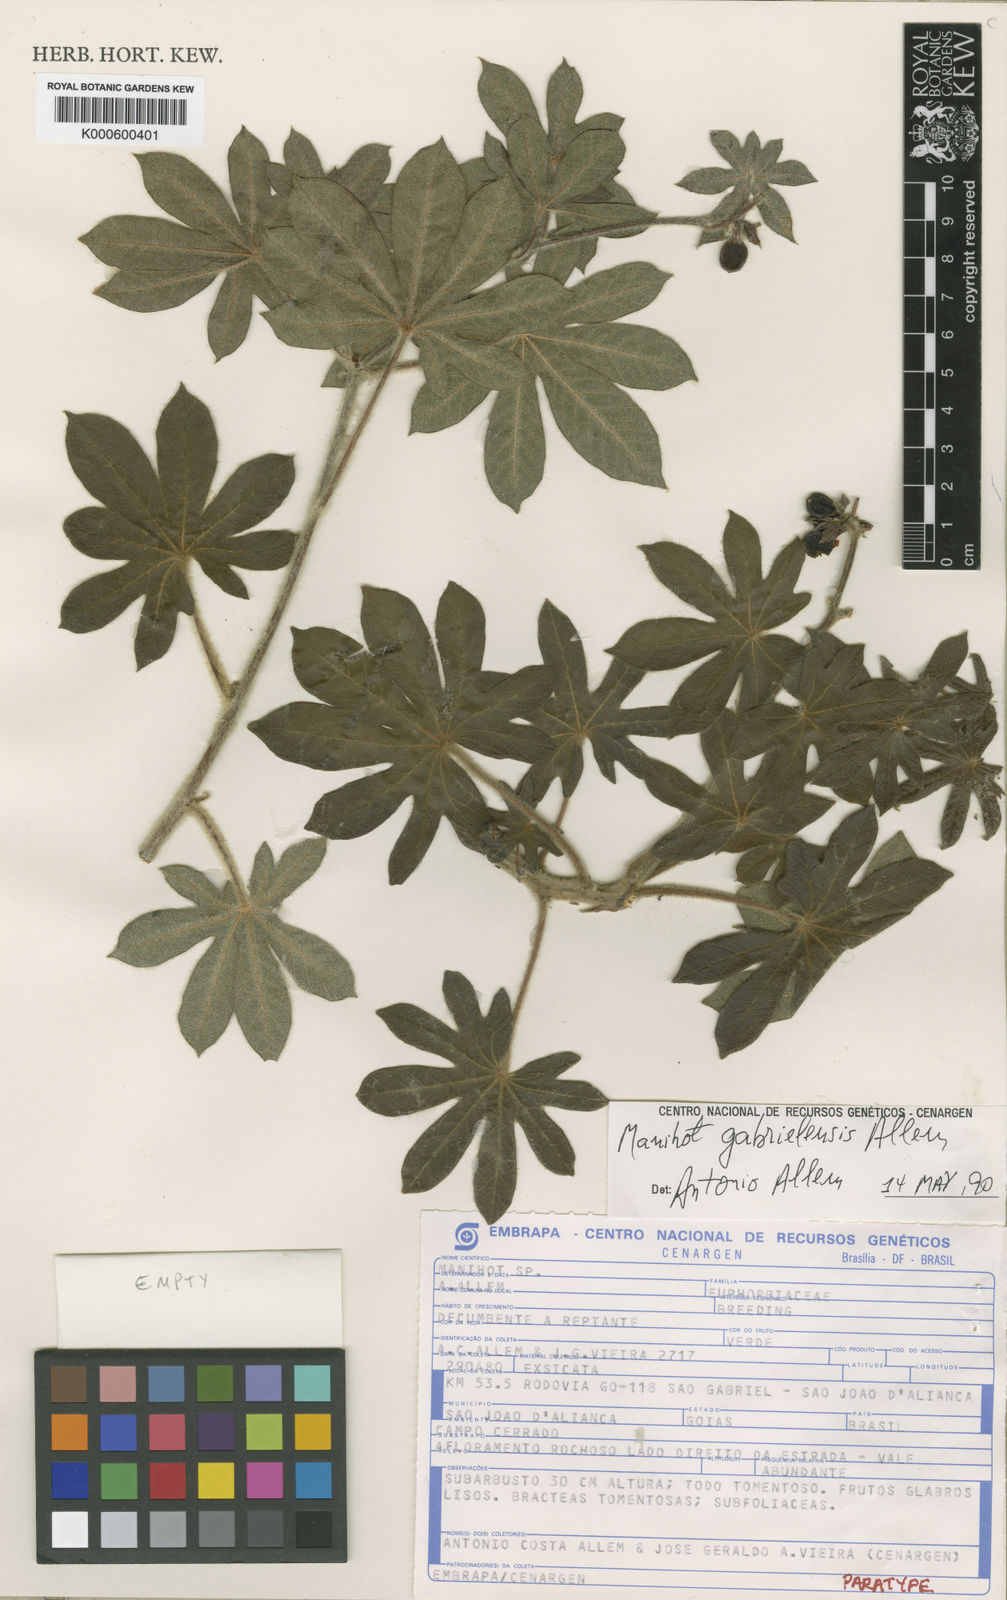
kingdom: Plantae
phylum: Tracheophyta
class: Magnoliopsida
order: Malpighiales
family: Euphorbiaceae
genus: Manihot
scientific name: Manihot
